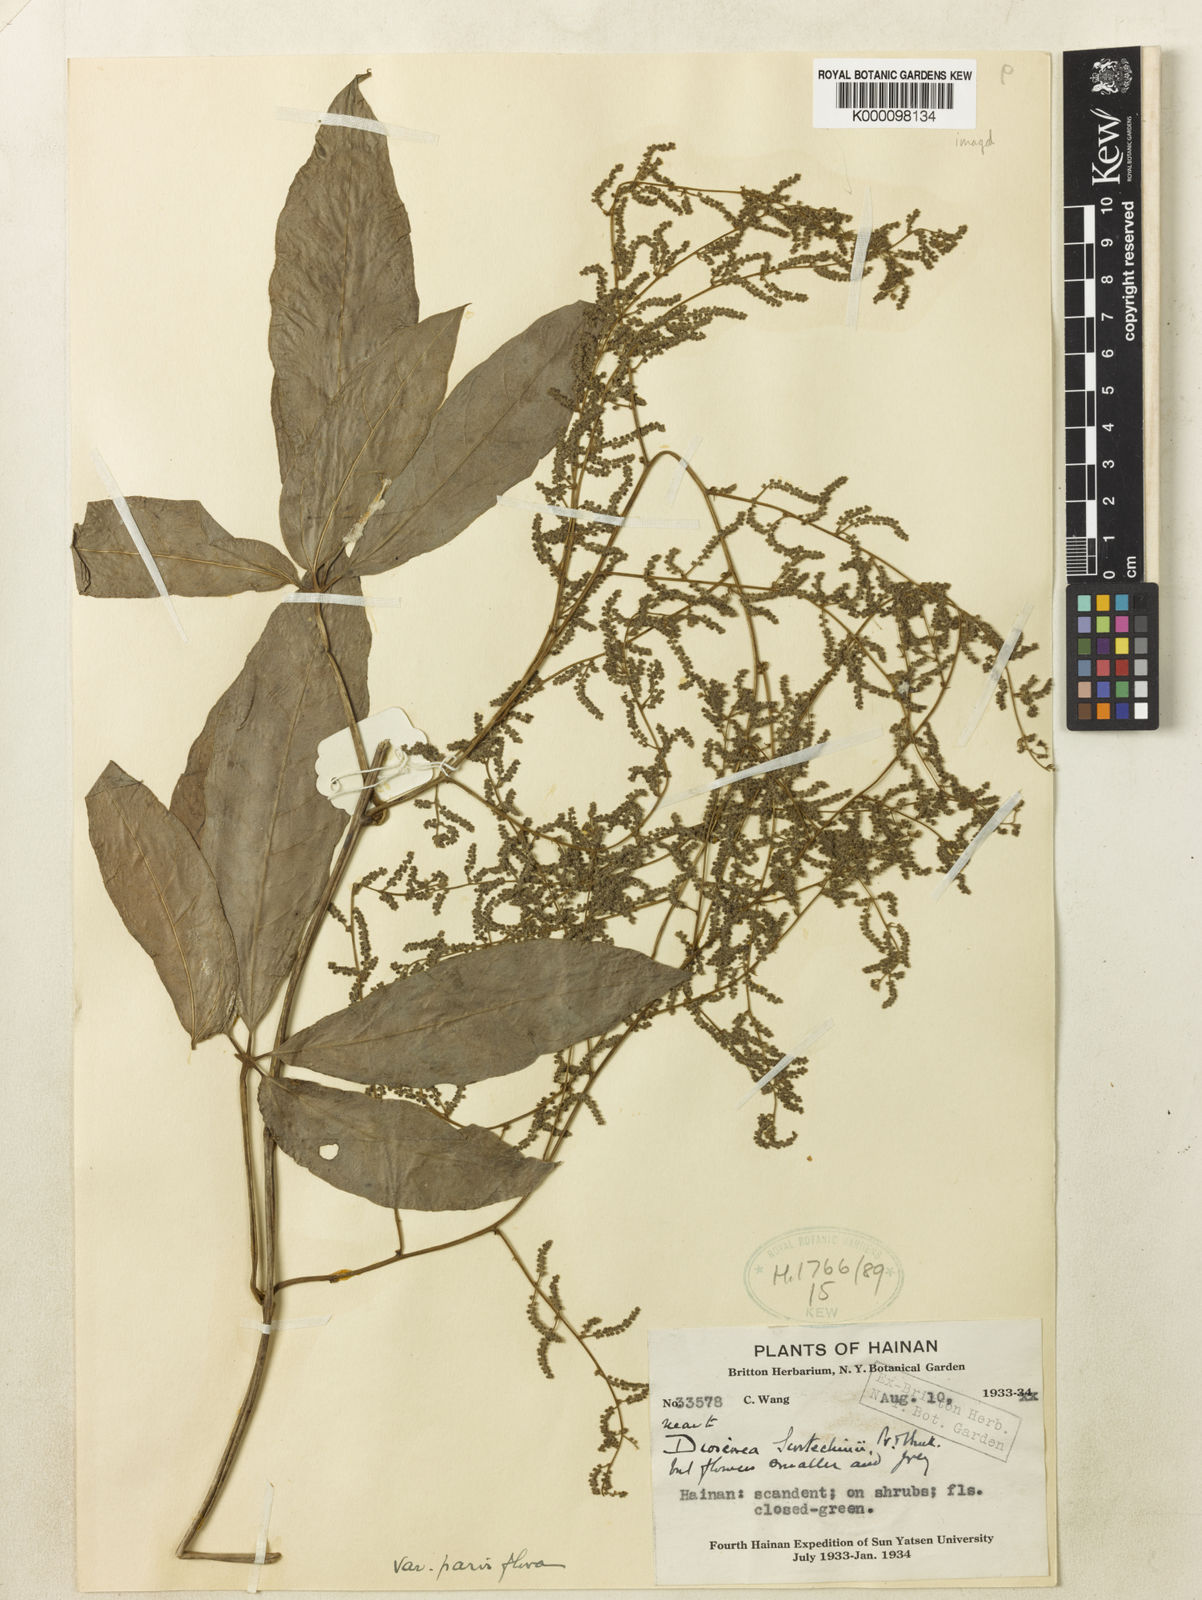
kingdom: Plantae
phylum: Tracheophyta
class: Liliopsida
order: Dioscoreales
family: Dioscoreaceae
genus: Dioscorea
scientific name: Dioscorea scortechinii
